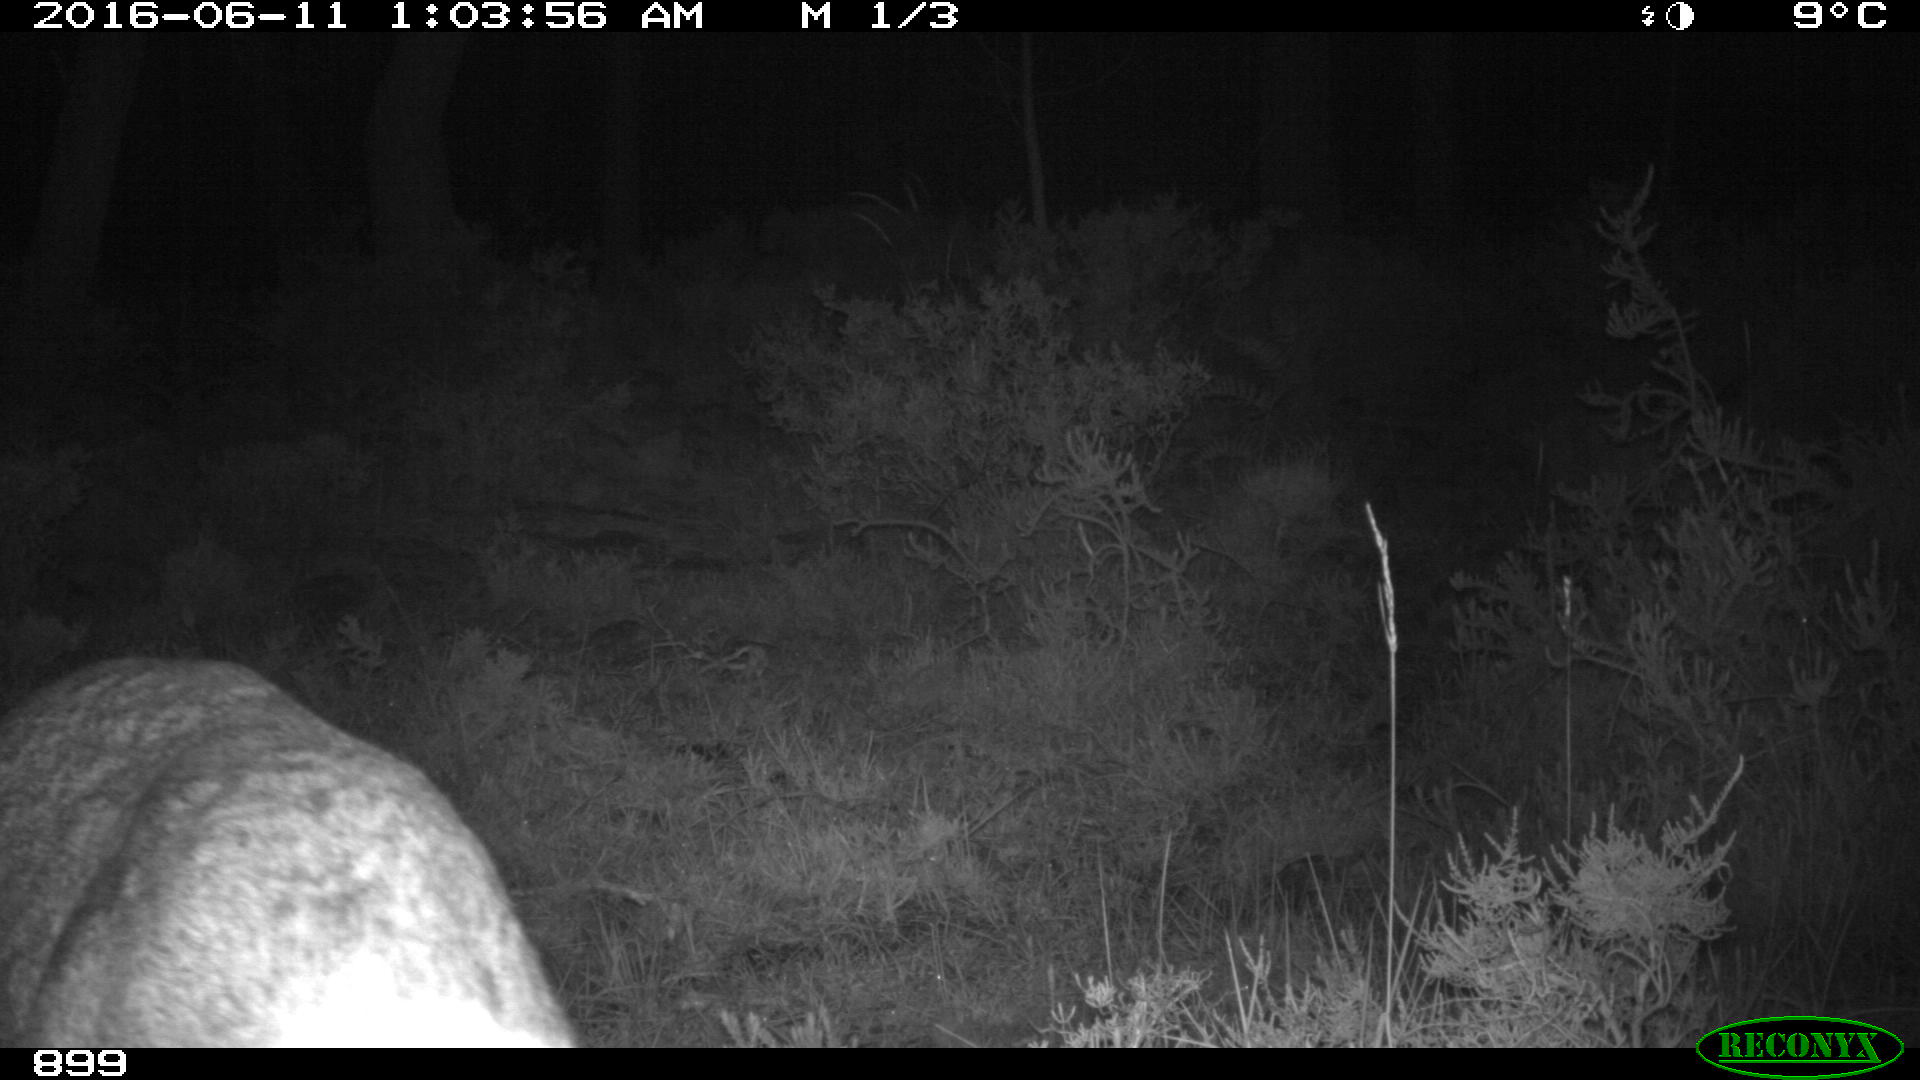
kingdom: Animalia
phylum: Chordata
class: Mammalia
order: Artiodactyla
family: Cervidae
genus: Capreolus
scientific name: Capreolus capreolus
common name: Western roe deer
